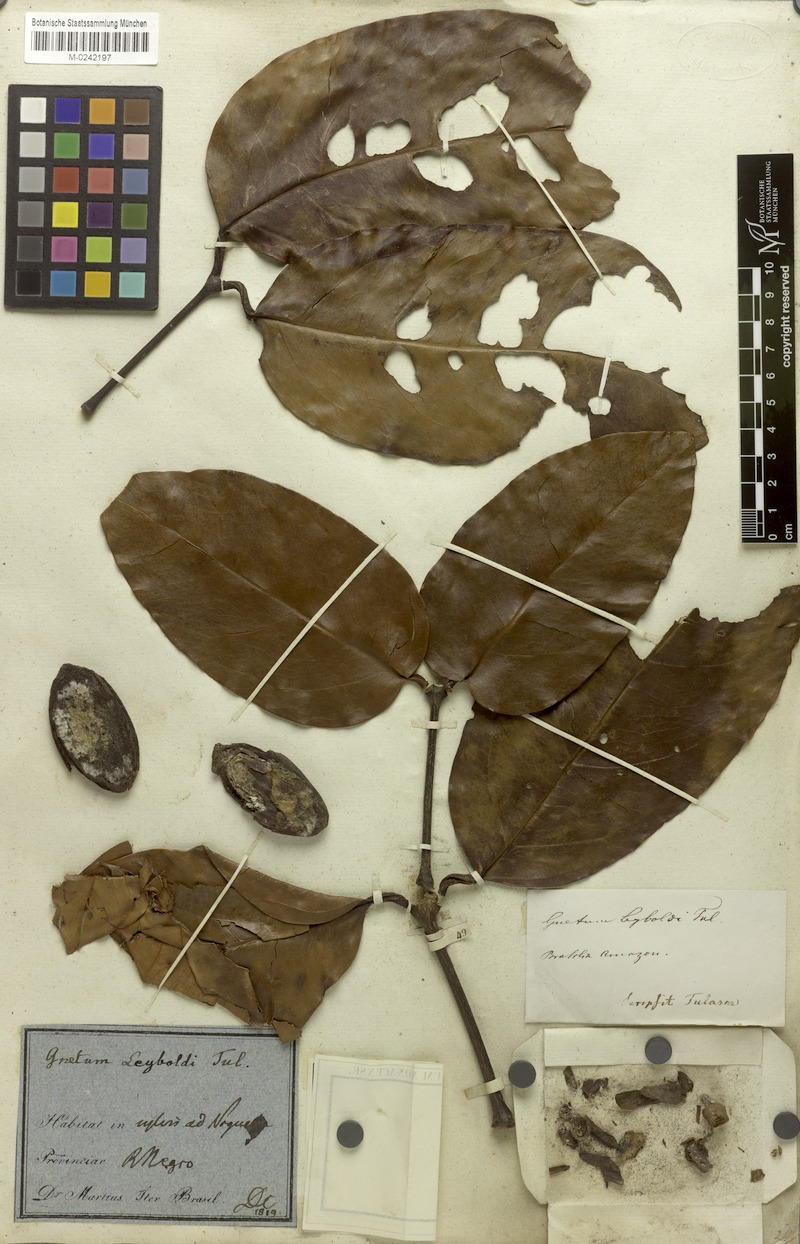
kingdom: Plantae
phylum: Tracheophyta
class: Gnetopsida
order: Gnetales
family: Gnetaceae
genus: Gnetum
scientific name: Gnetum leyboldii
